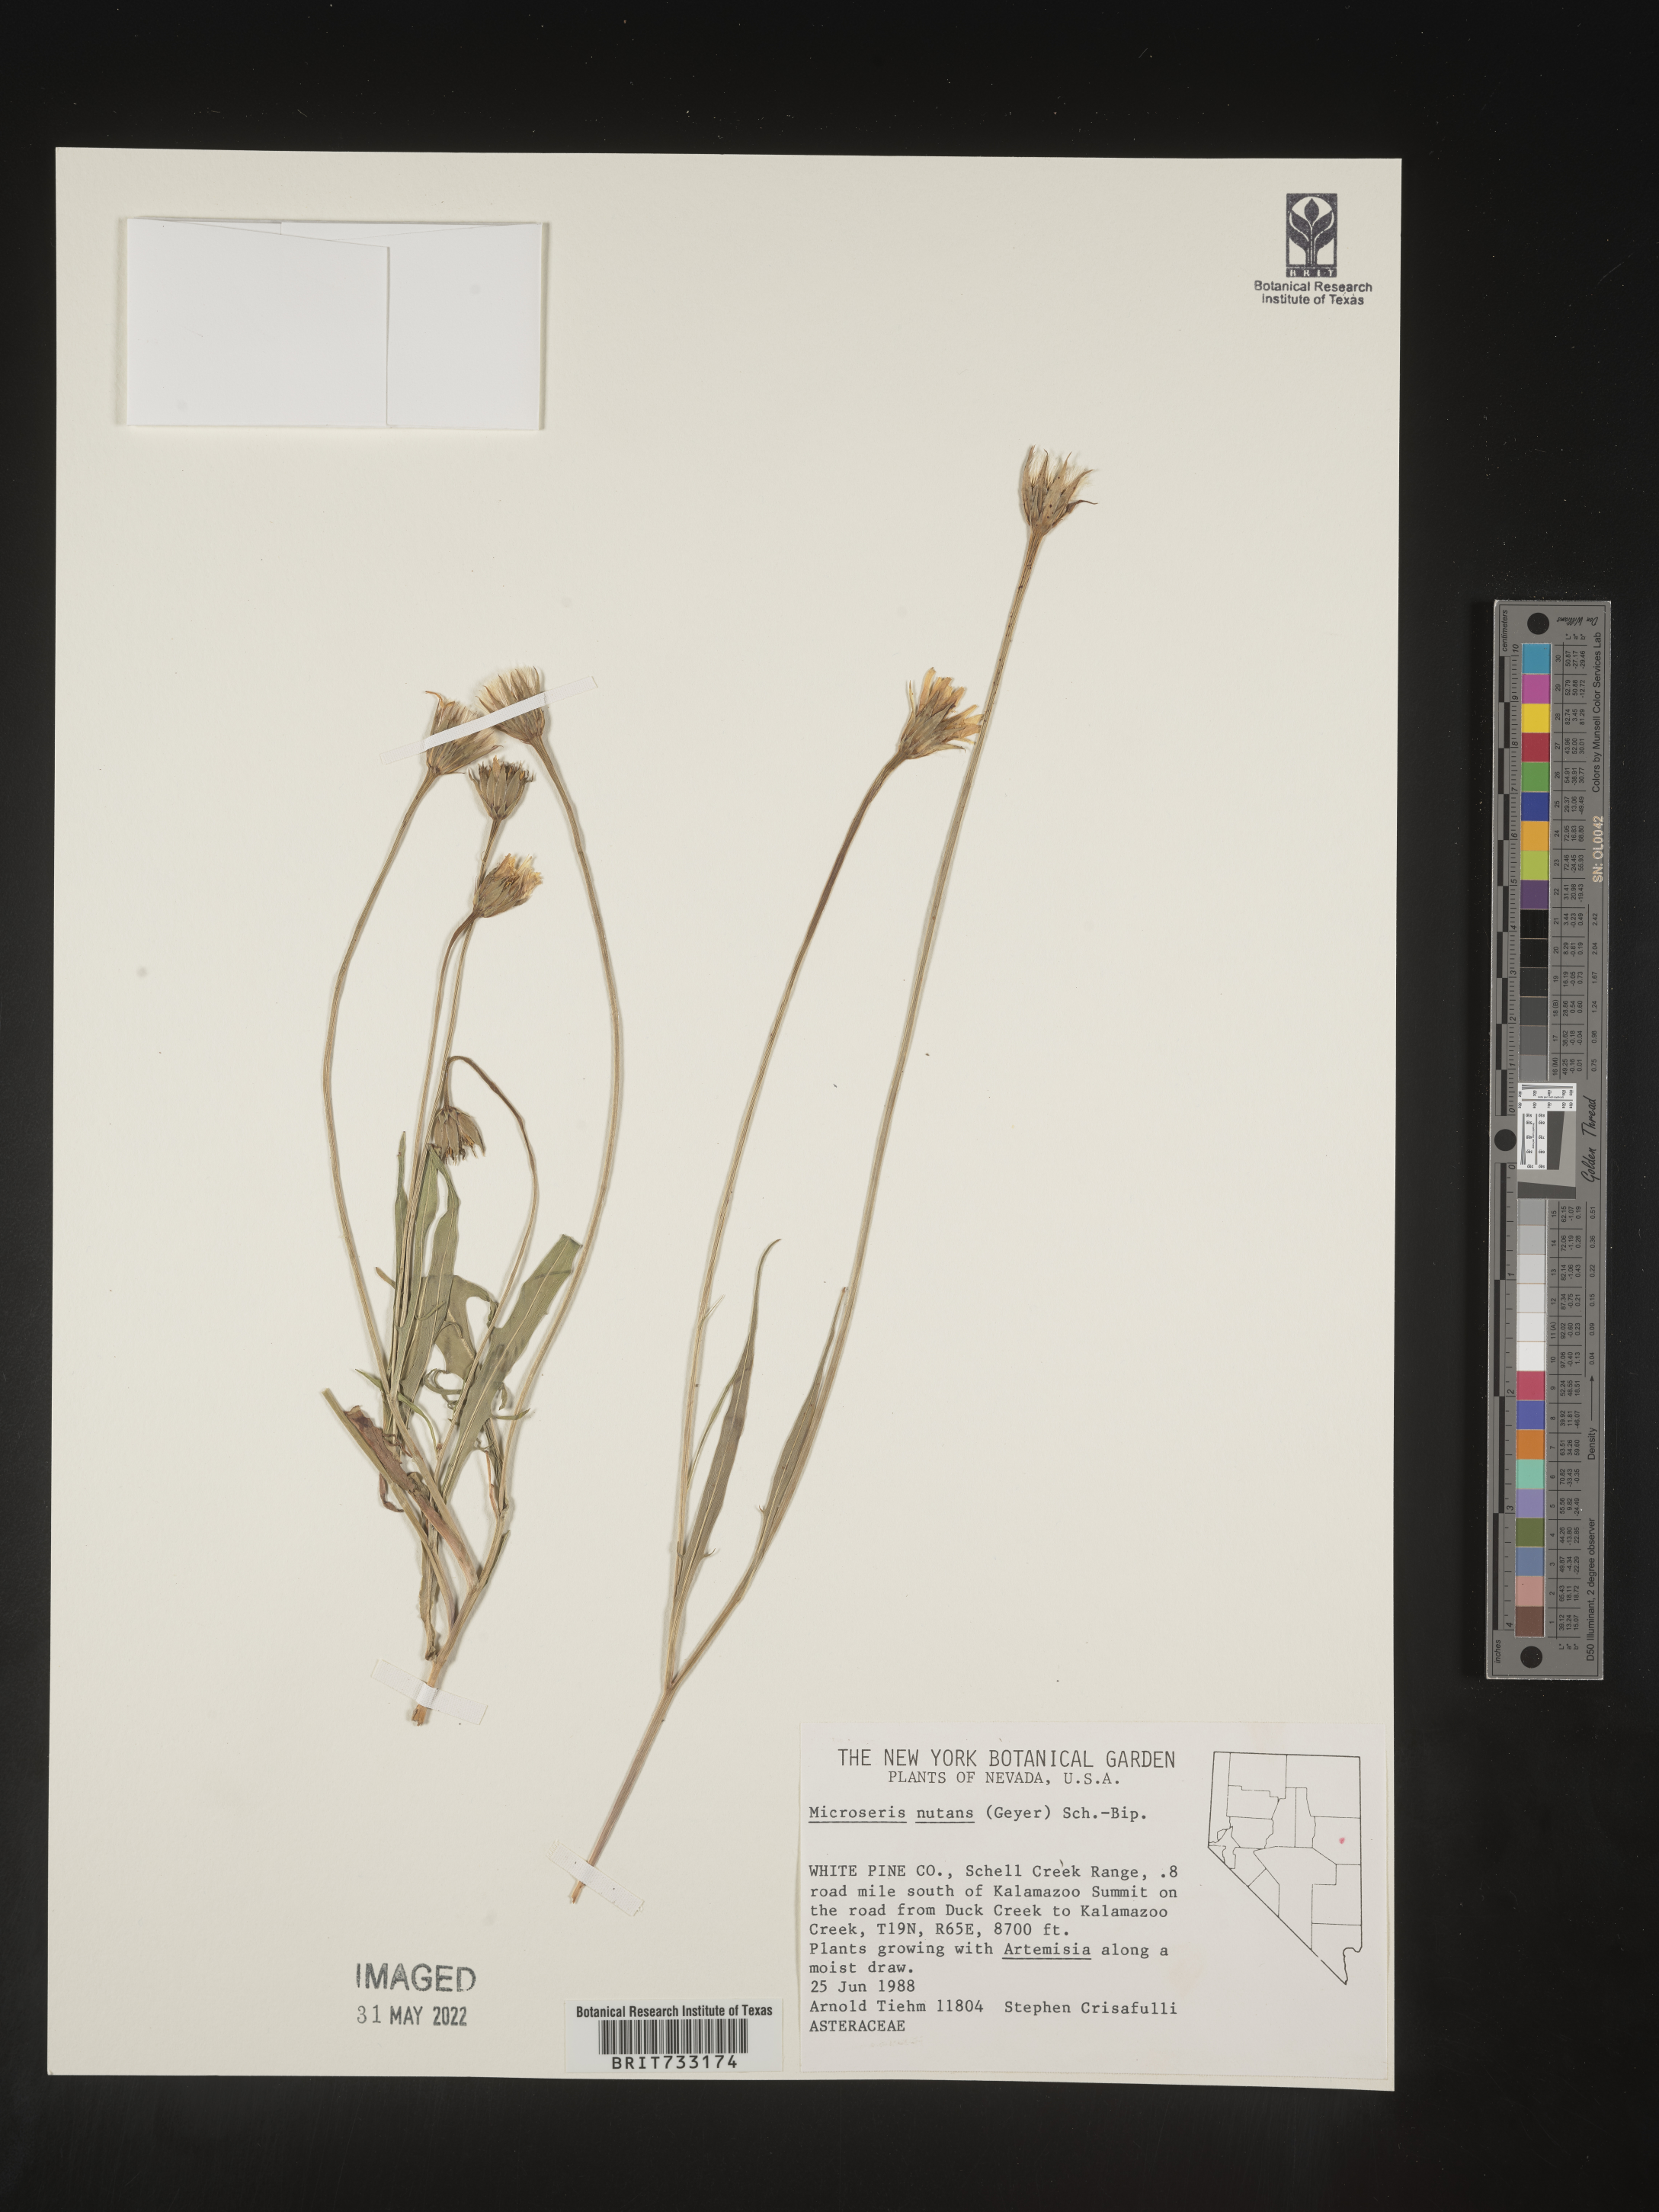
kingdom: Plantae
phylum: Tracheophyta
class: Magnoliopsida
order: Asterales
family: Asteraceae
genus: Microseris
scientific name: Microseris nutans
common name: Nodding microseris
